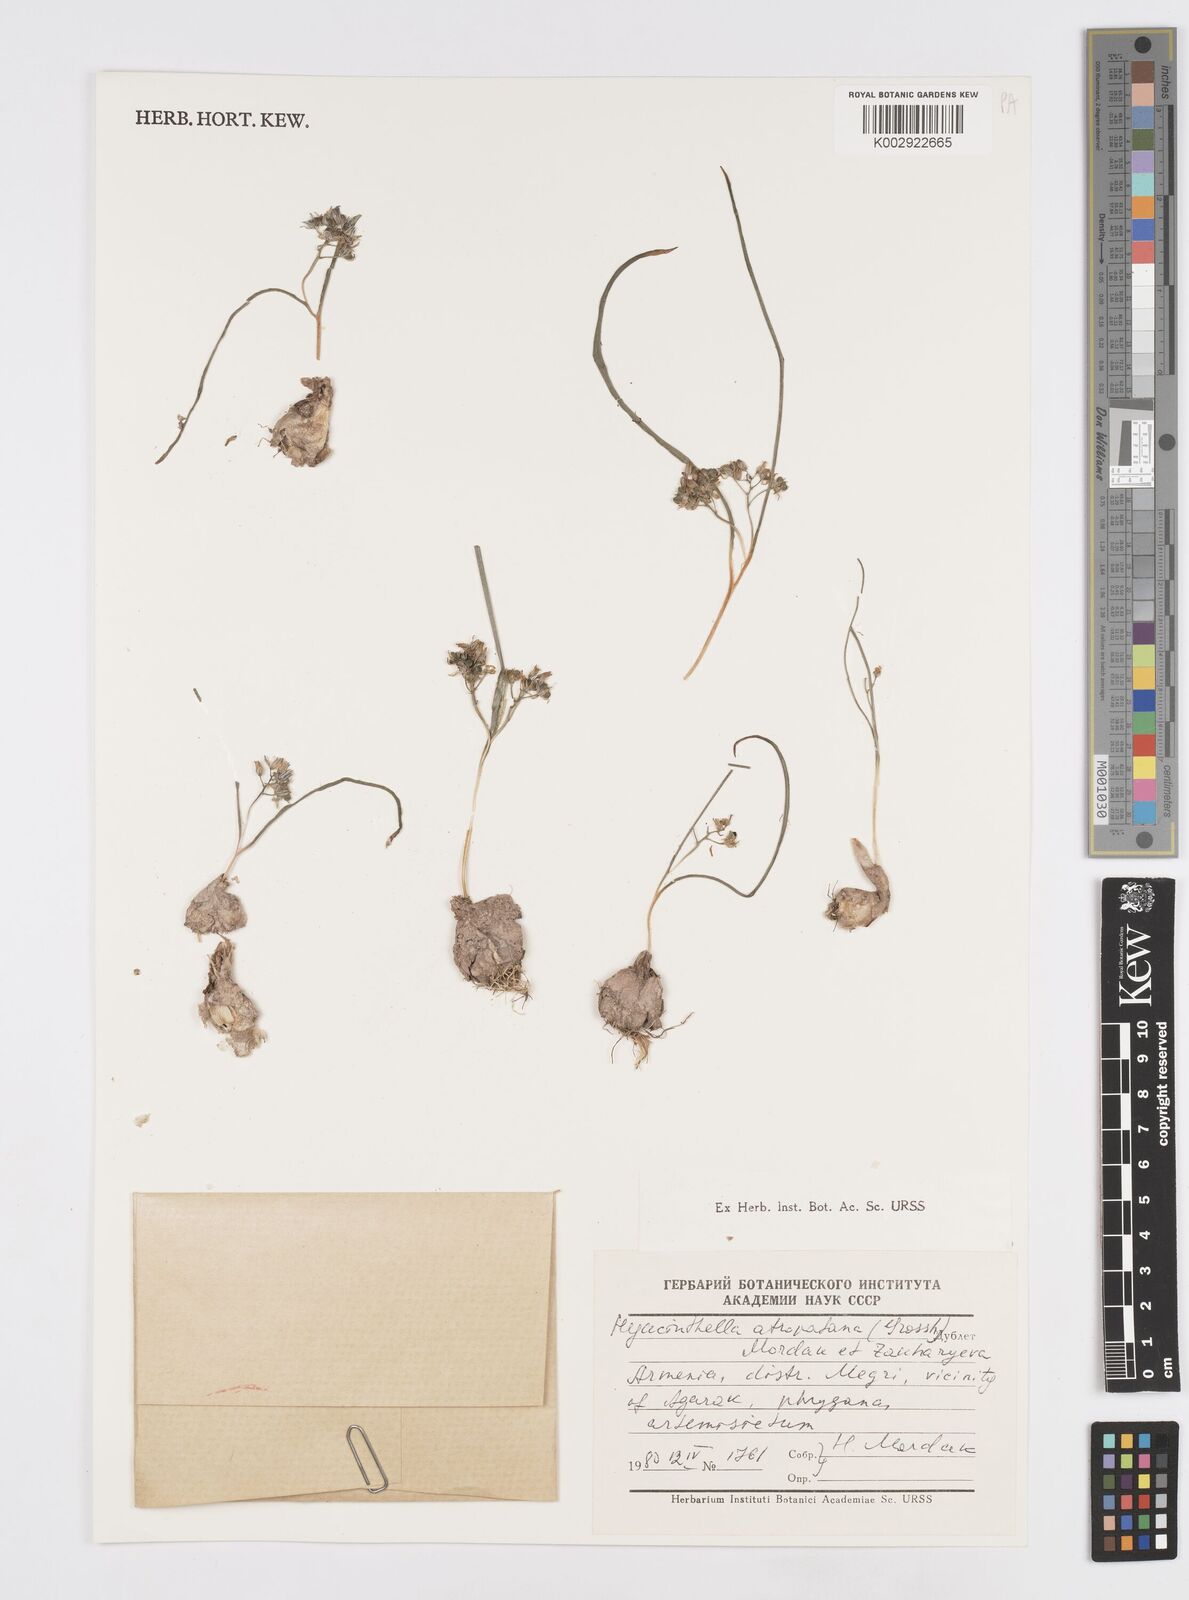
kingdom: Plantae
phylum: Tracheophyta
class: Liliopsida
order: Asparagales
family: Asparagaceae
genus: Hyacinthella
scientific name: Hyacinthella atropatana
